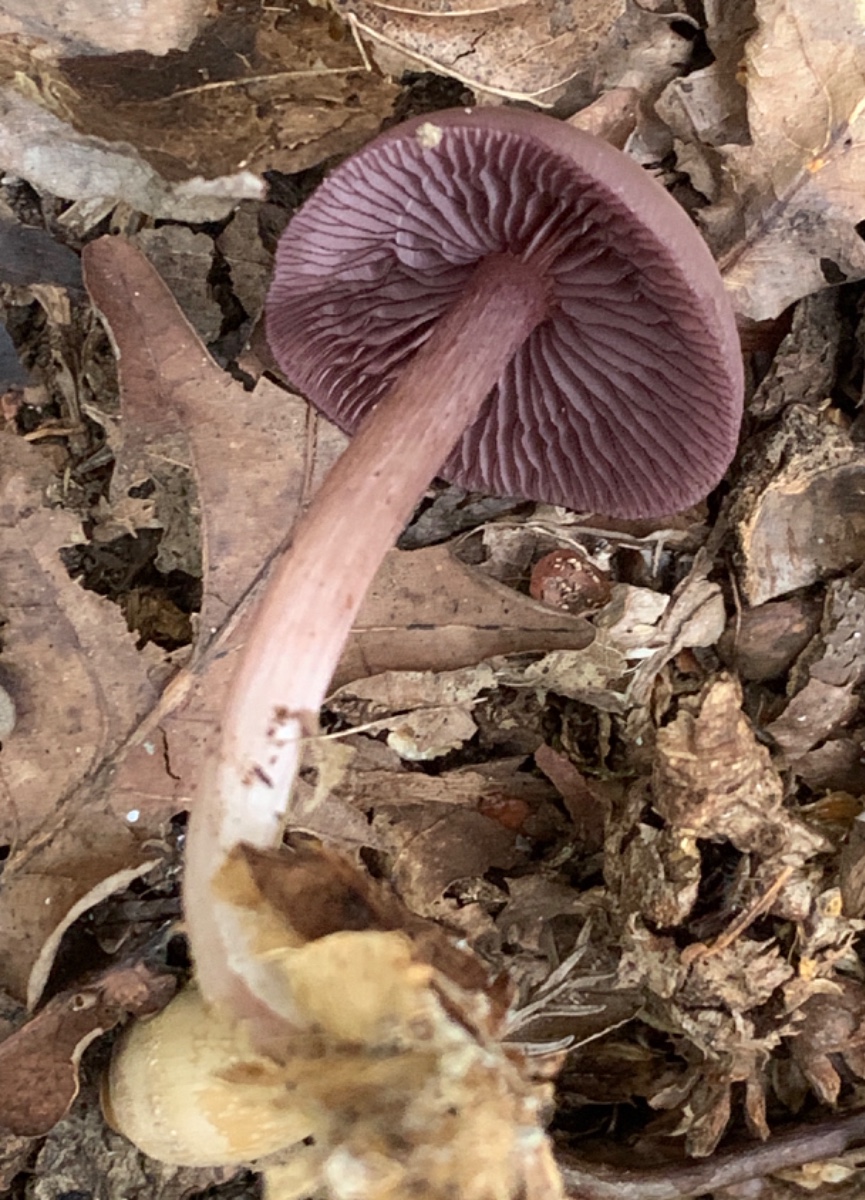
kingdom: Fungi
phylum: Basidiomycota
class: Agaricomycetes
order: Agaricales
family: Mycenaceae
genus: Mycena
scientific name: Mycena pelianthina
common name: mørkbladet huesvamp
